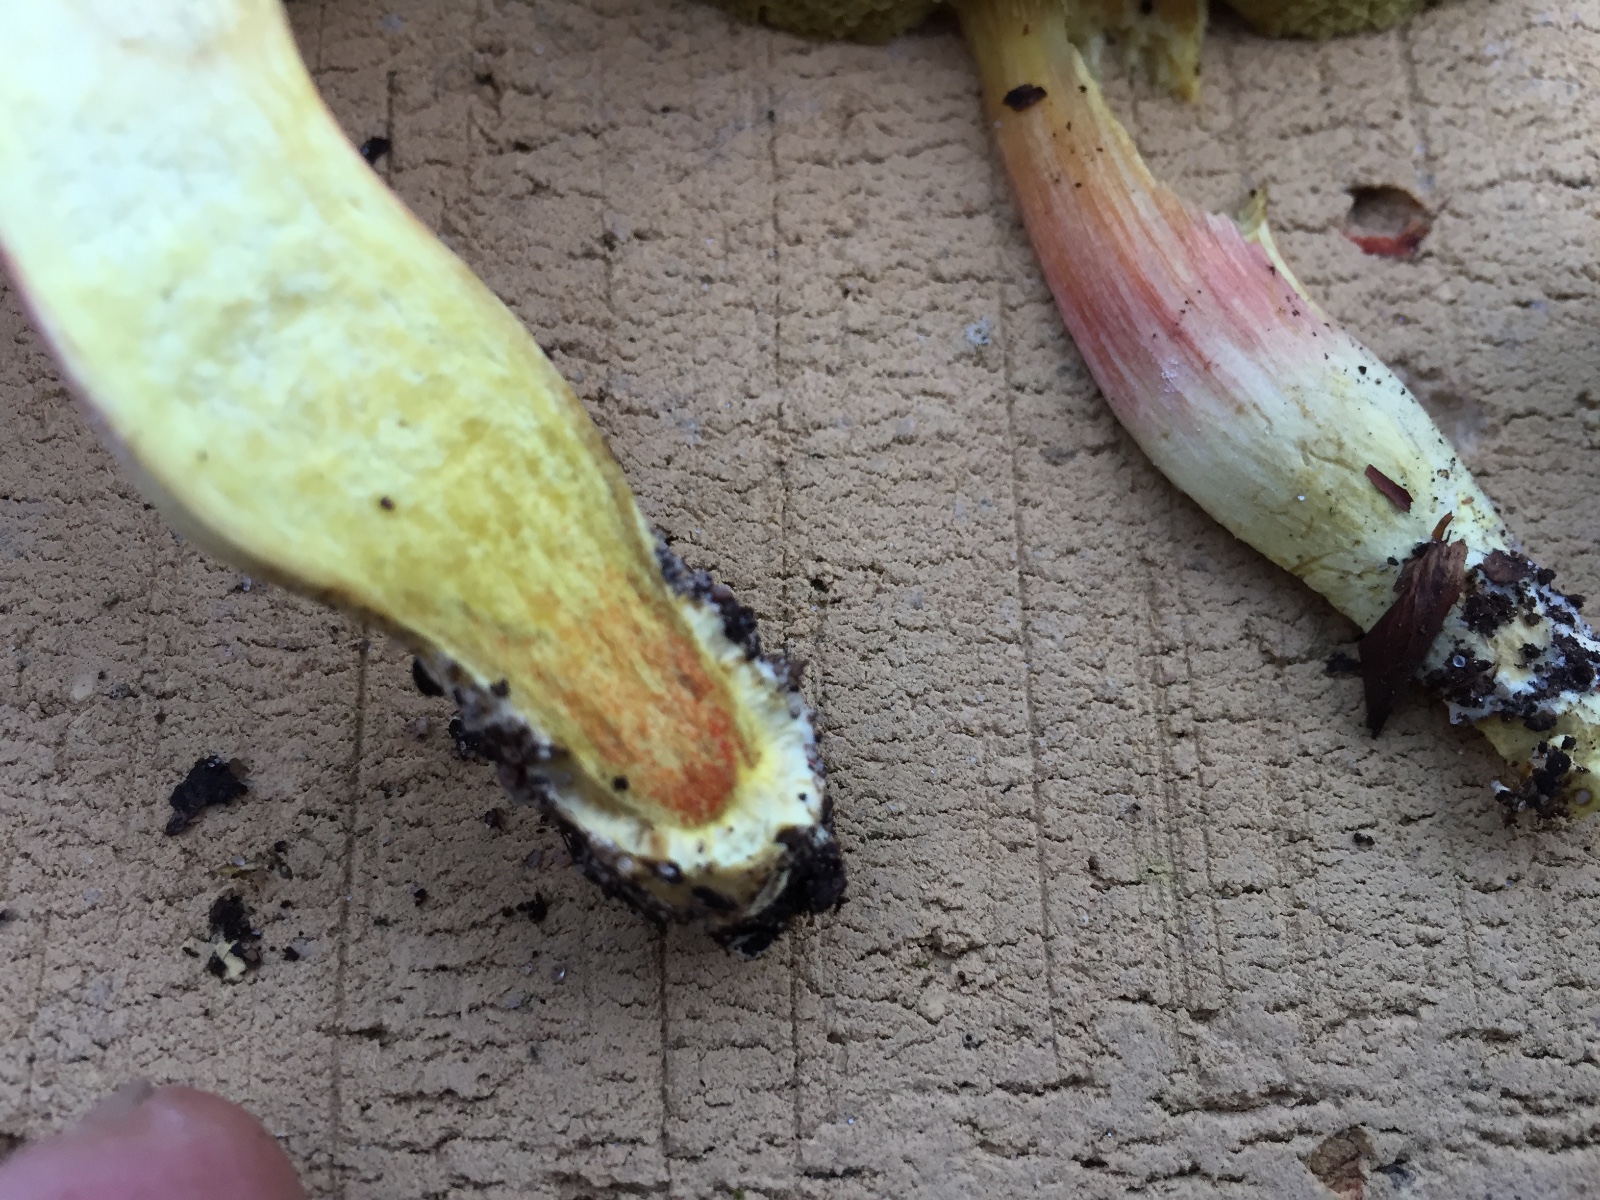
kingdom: Fungi
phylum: Basidiomycota
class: Agaricomycetes
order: Boletales
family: Boletaceae
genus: Hortiboletus
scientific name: Hortiboletus engelii
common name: fersken-rørhat
